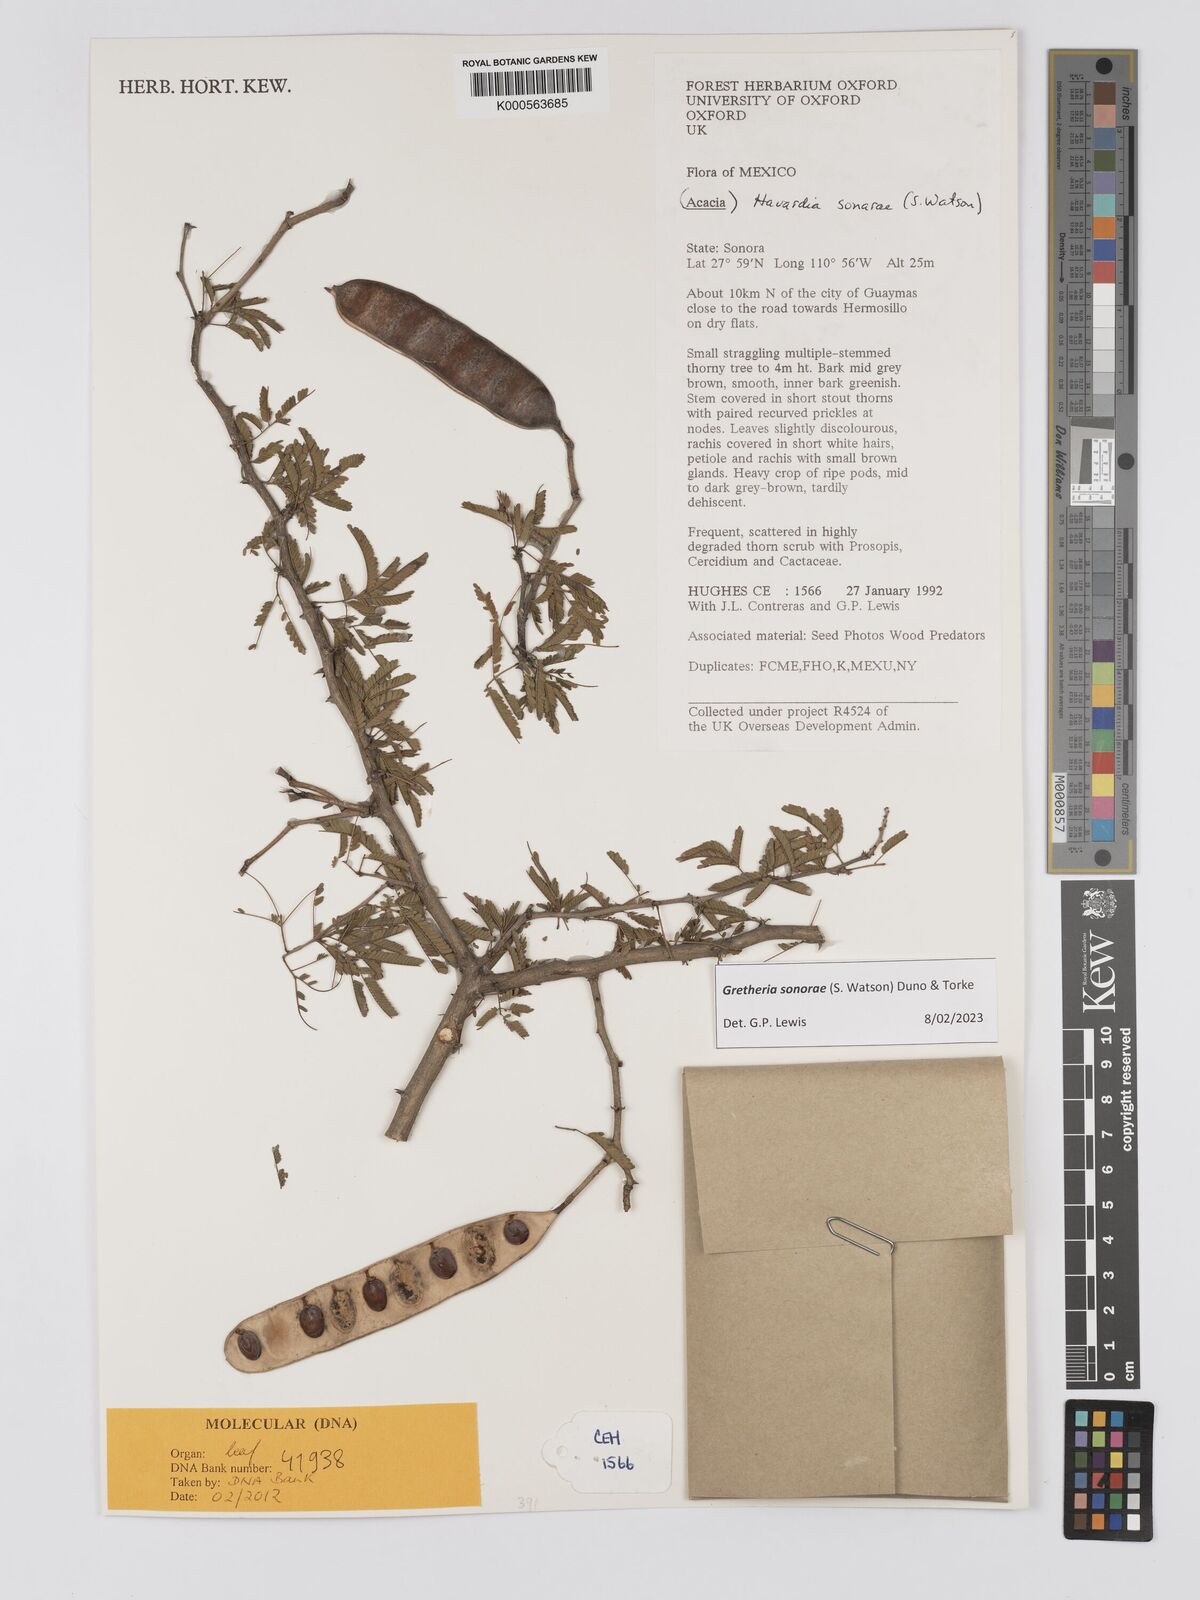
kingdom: Plantae
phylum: Tracheophyta
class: Magnoliopsida
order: Fabales
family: Fabaceae
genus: Havardia
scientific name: Havardia sonorae
